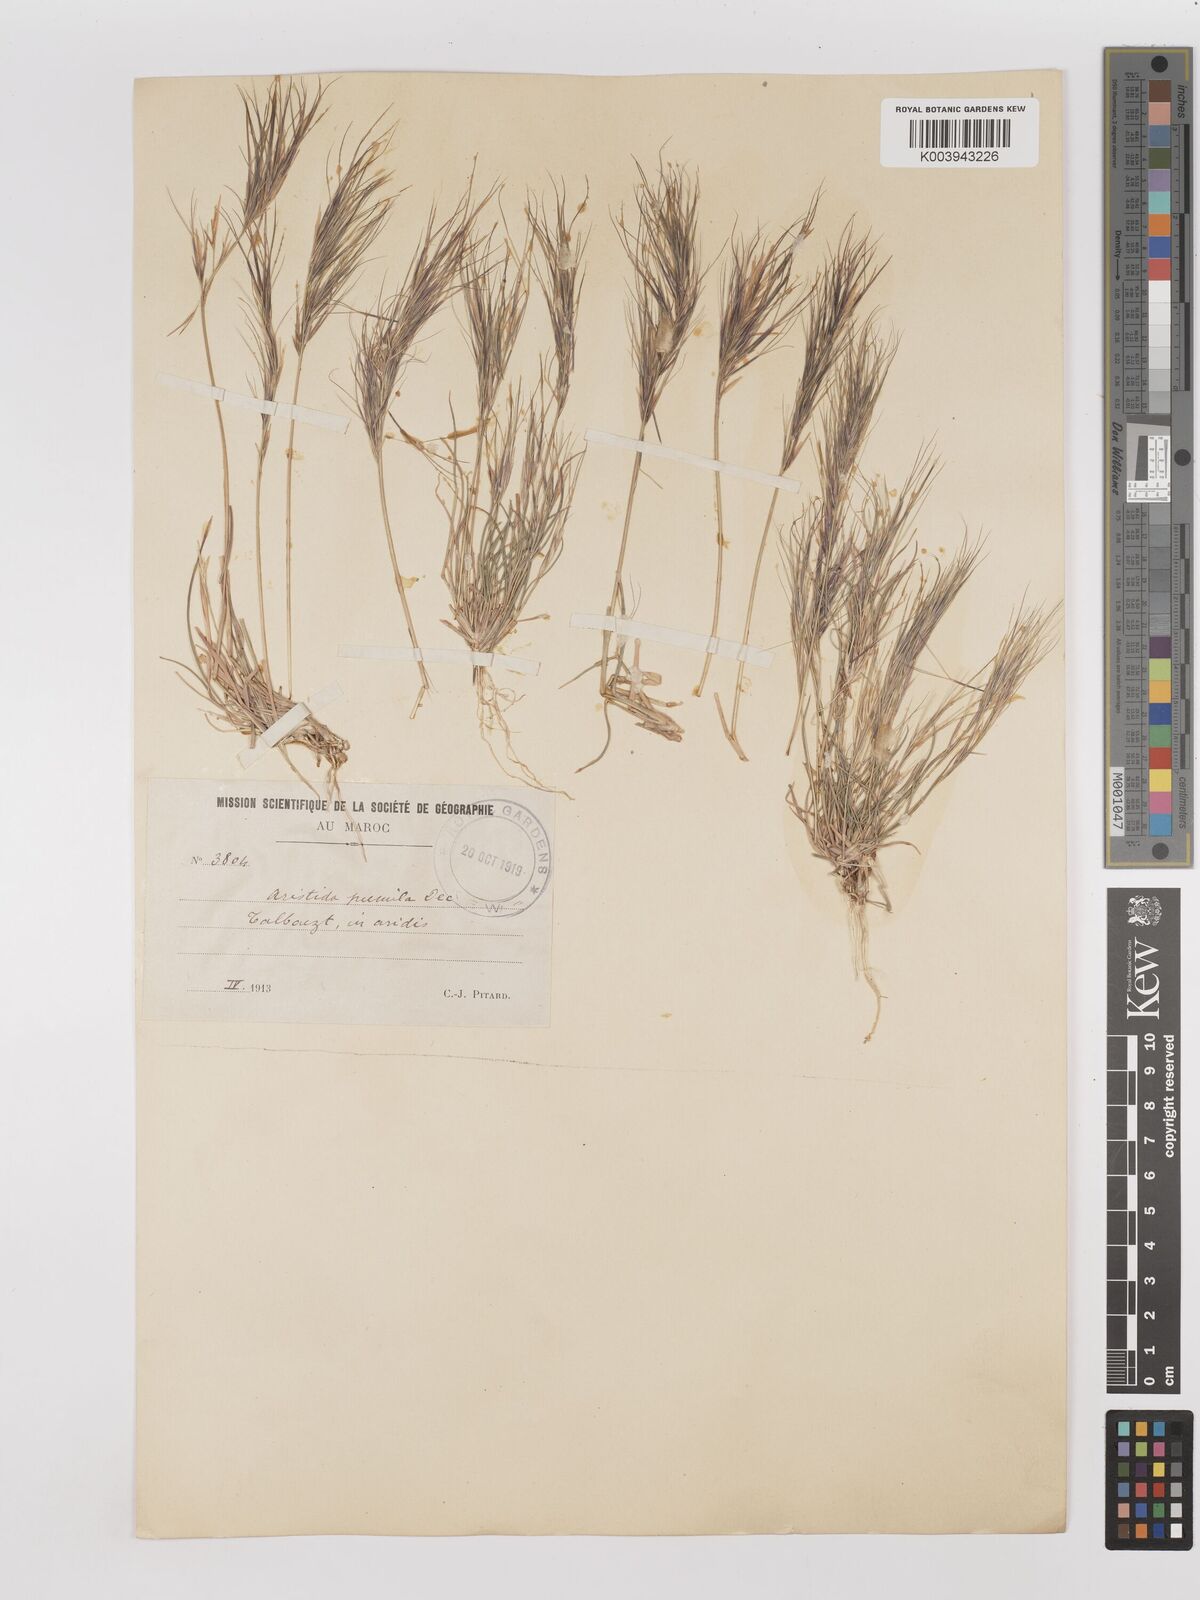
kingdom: Plantae
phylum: Tracheophyta
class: Liliopsida
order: Poales
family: Poaceae
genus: Aristida
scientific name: Aristida adscensionis
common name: Sixweeks threeawn
